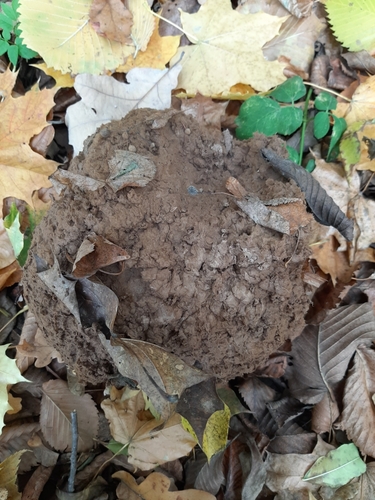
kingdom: Fungi
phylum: Basidiomycota
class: Agaricomycetes
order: Agaricales
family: Lycoperdaceae
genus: Calvatia
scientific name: Calvatia gigantea
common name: Giant puffball
